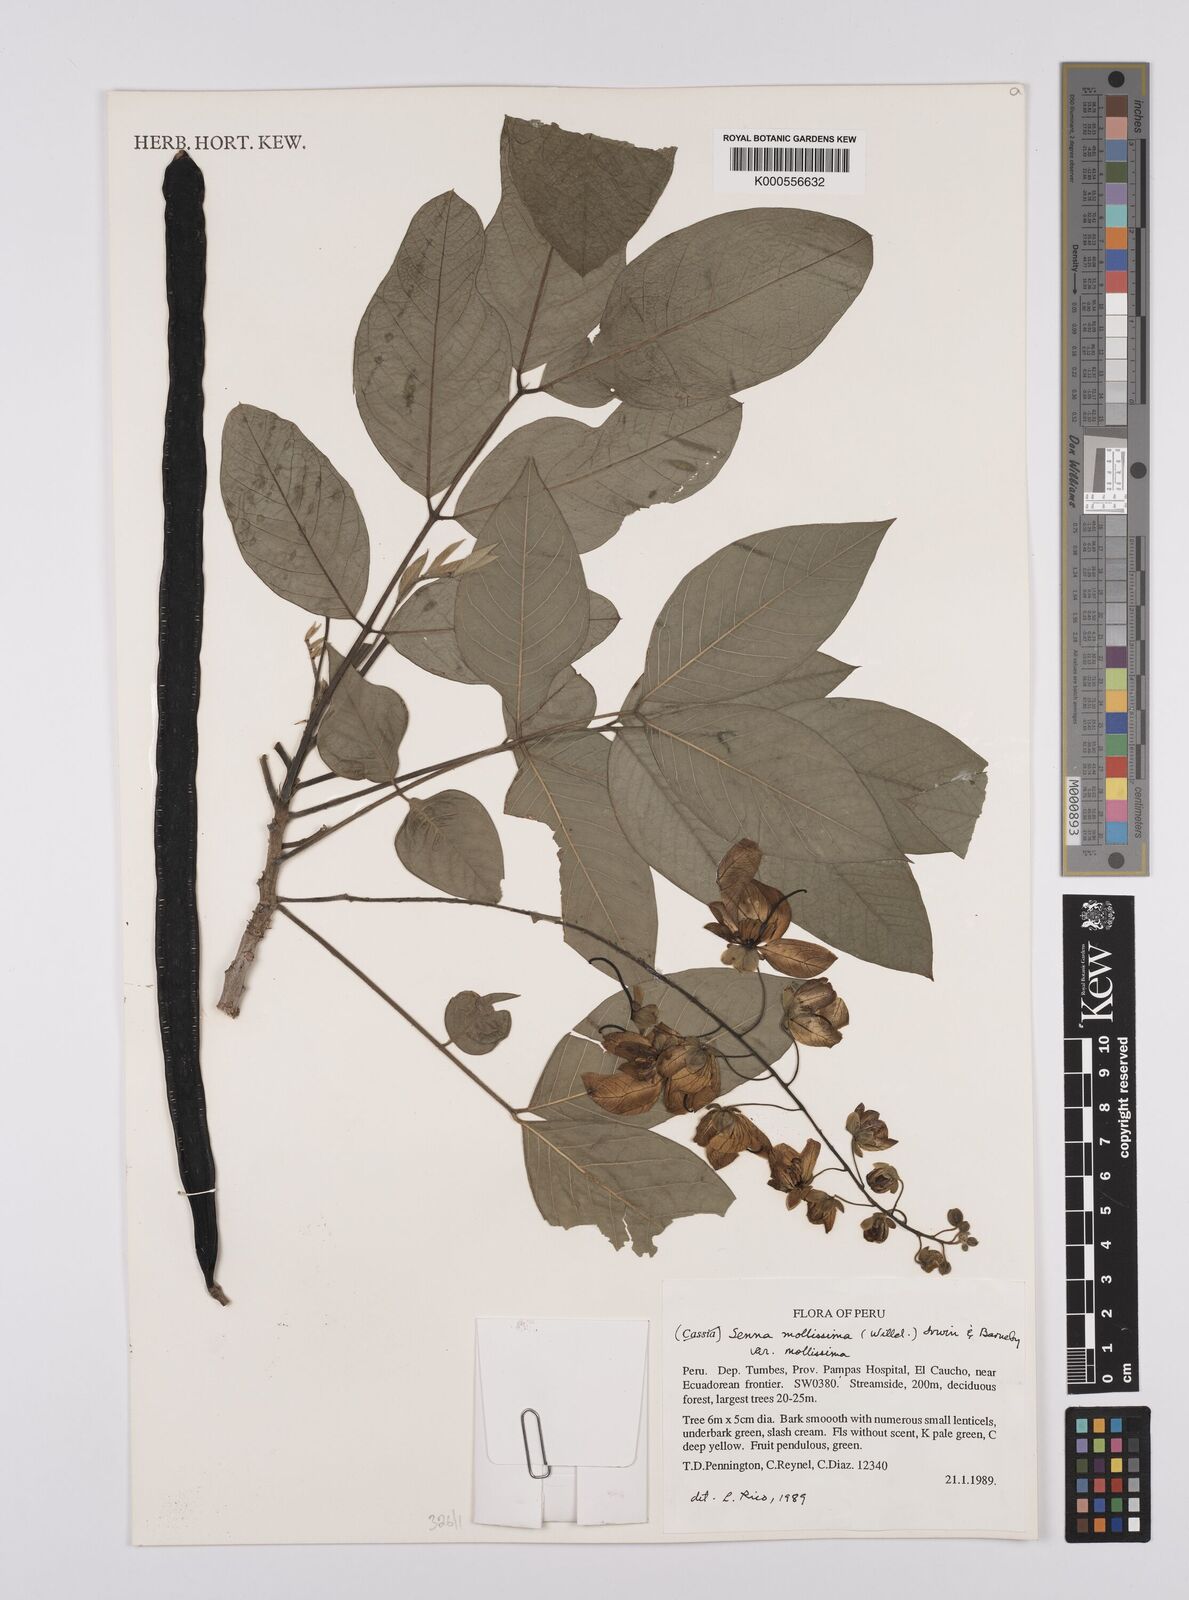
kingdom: Plantae
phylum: Tracheophyta
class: Magnoliopsida
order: Fabales
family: Fabaceae
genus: Senna
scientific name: Senna mollissima
